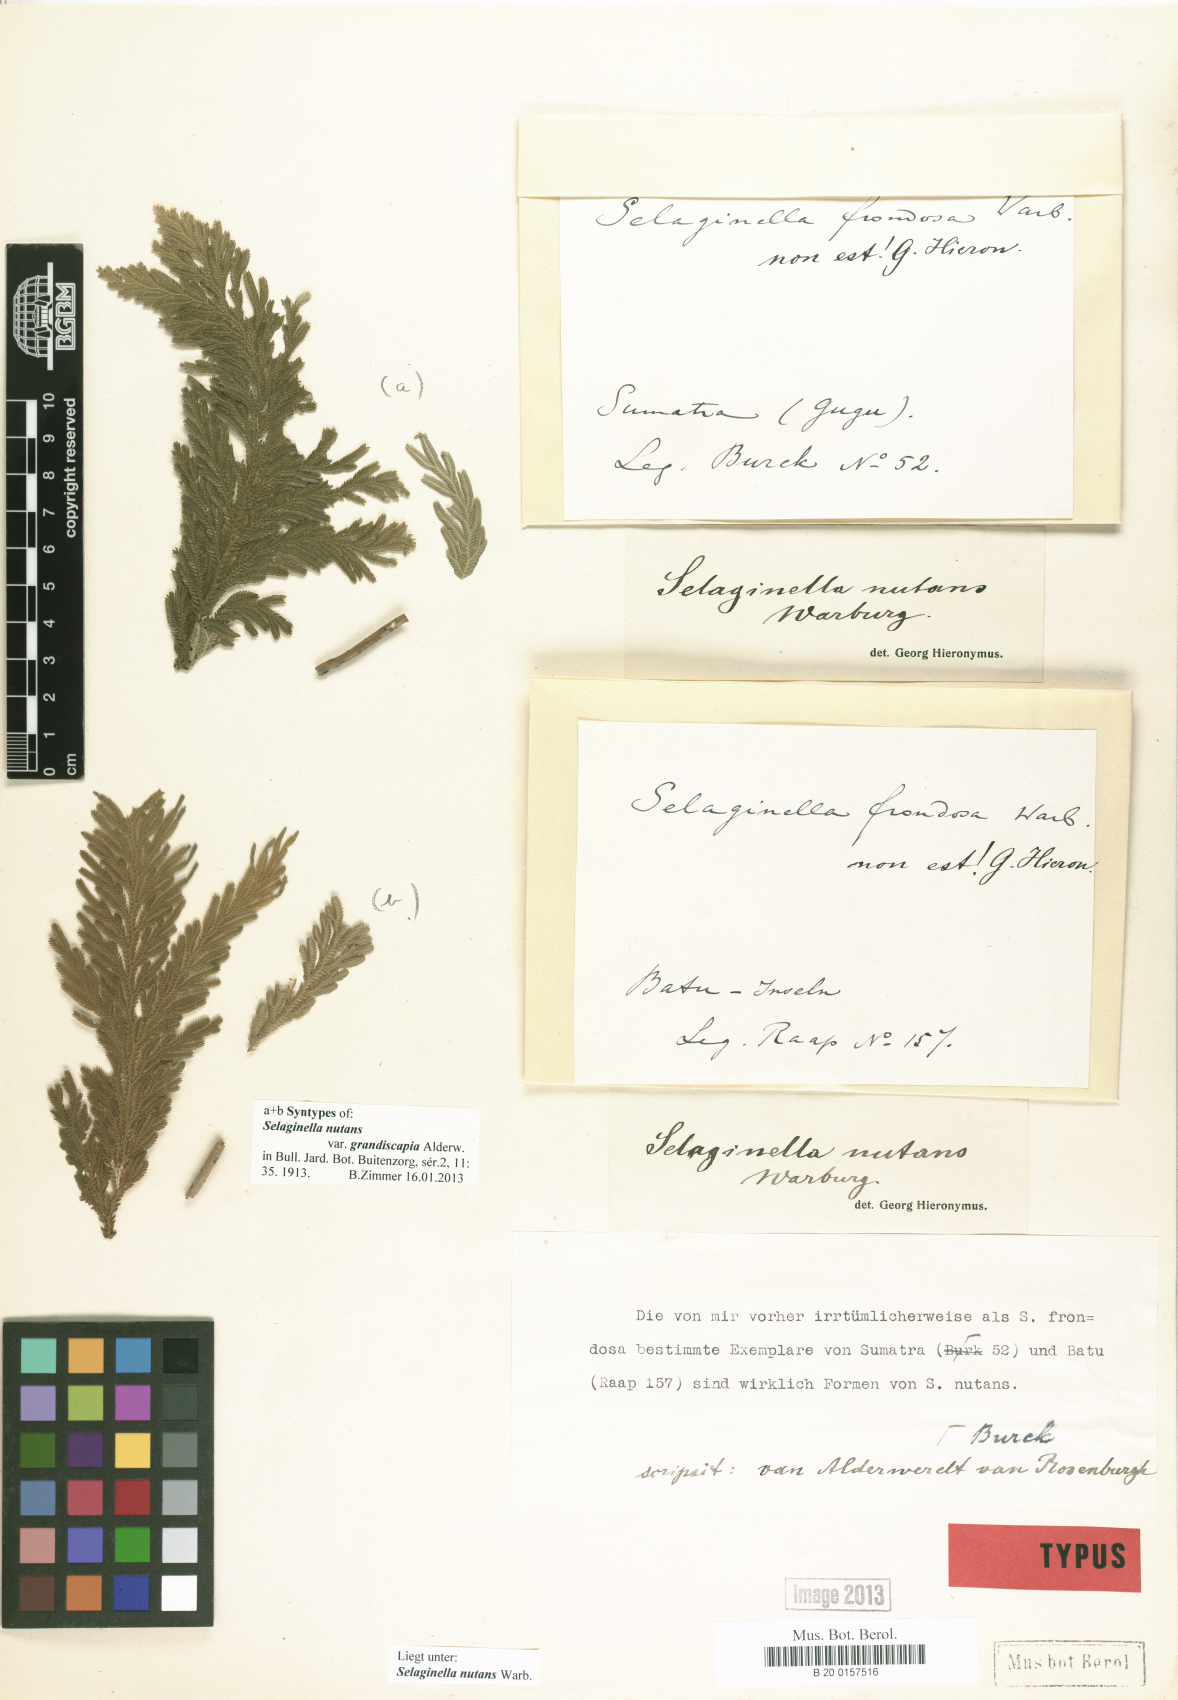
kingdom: Plantae
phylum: Tracheophyta
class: Lycopodiopsida
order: Selaginellales
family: Selaginellaceae
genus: Selaginella
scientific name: Selaginella frondosa
